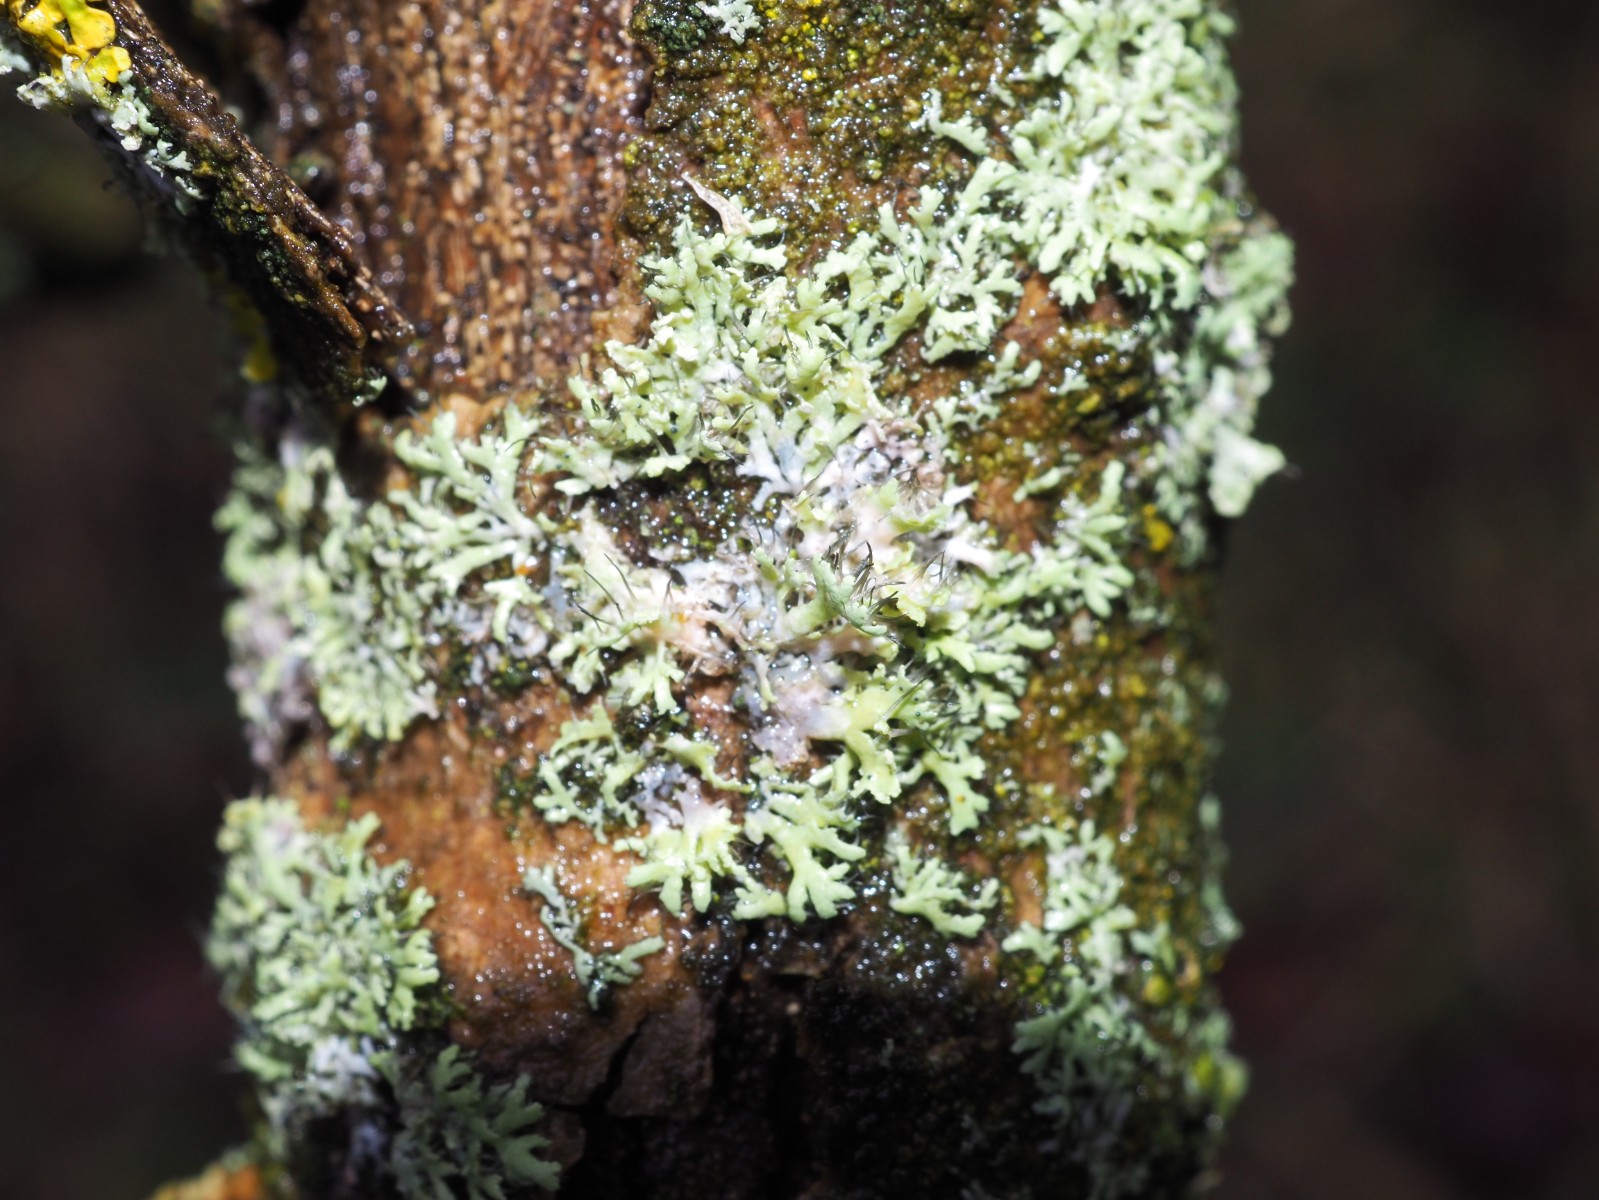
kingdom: Fungi
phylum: Ascomycota
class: Lecanoromycetes
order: Caliciales
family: Physciaceae
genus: Physcia
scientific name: Physcia tenella
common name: spæd rosetlav
